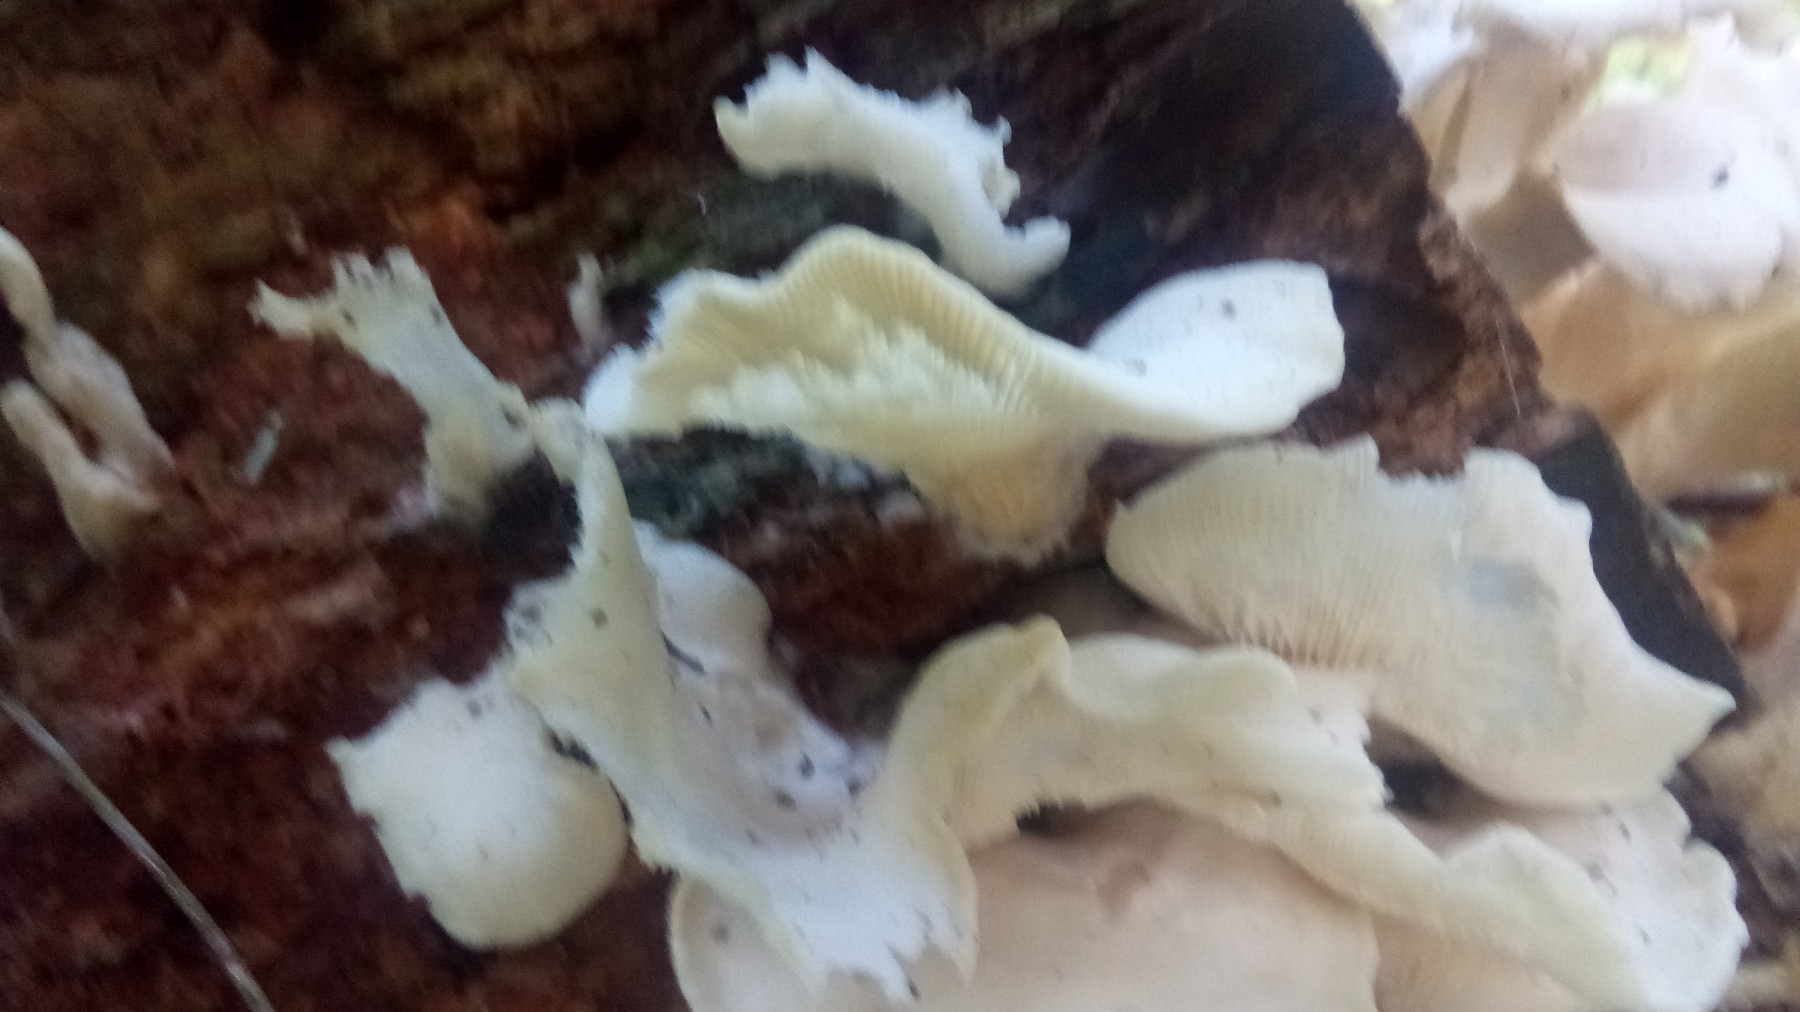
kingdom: Fungi
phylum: Basidiomycota
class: Agaricomycetes
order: Agaricales
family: Marasmiaceae
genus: Pleurocybella
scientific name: Pleurocybella porrigens
